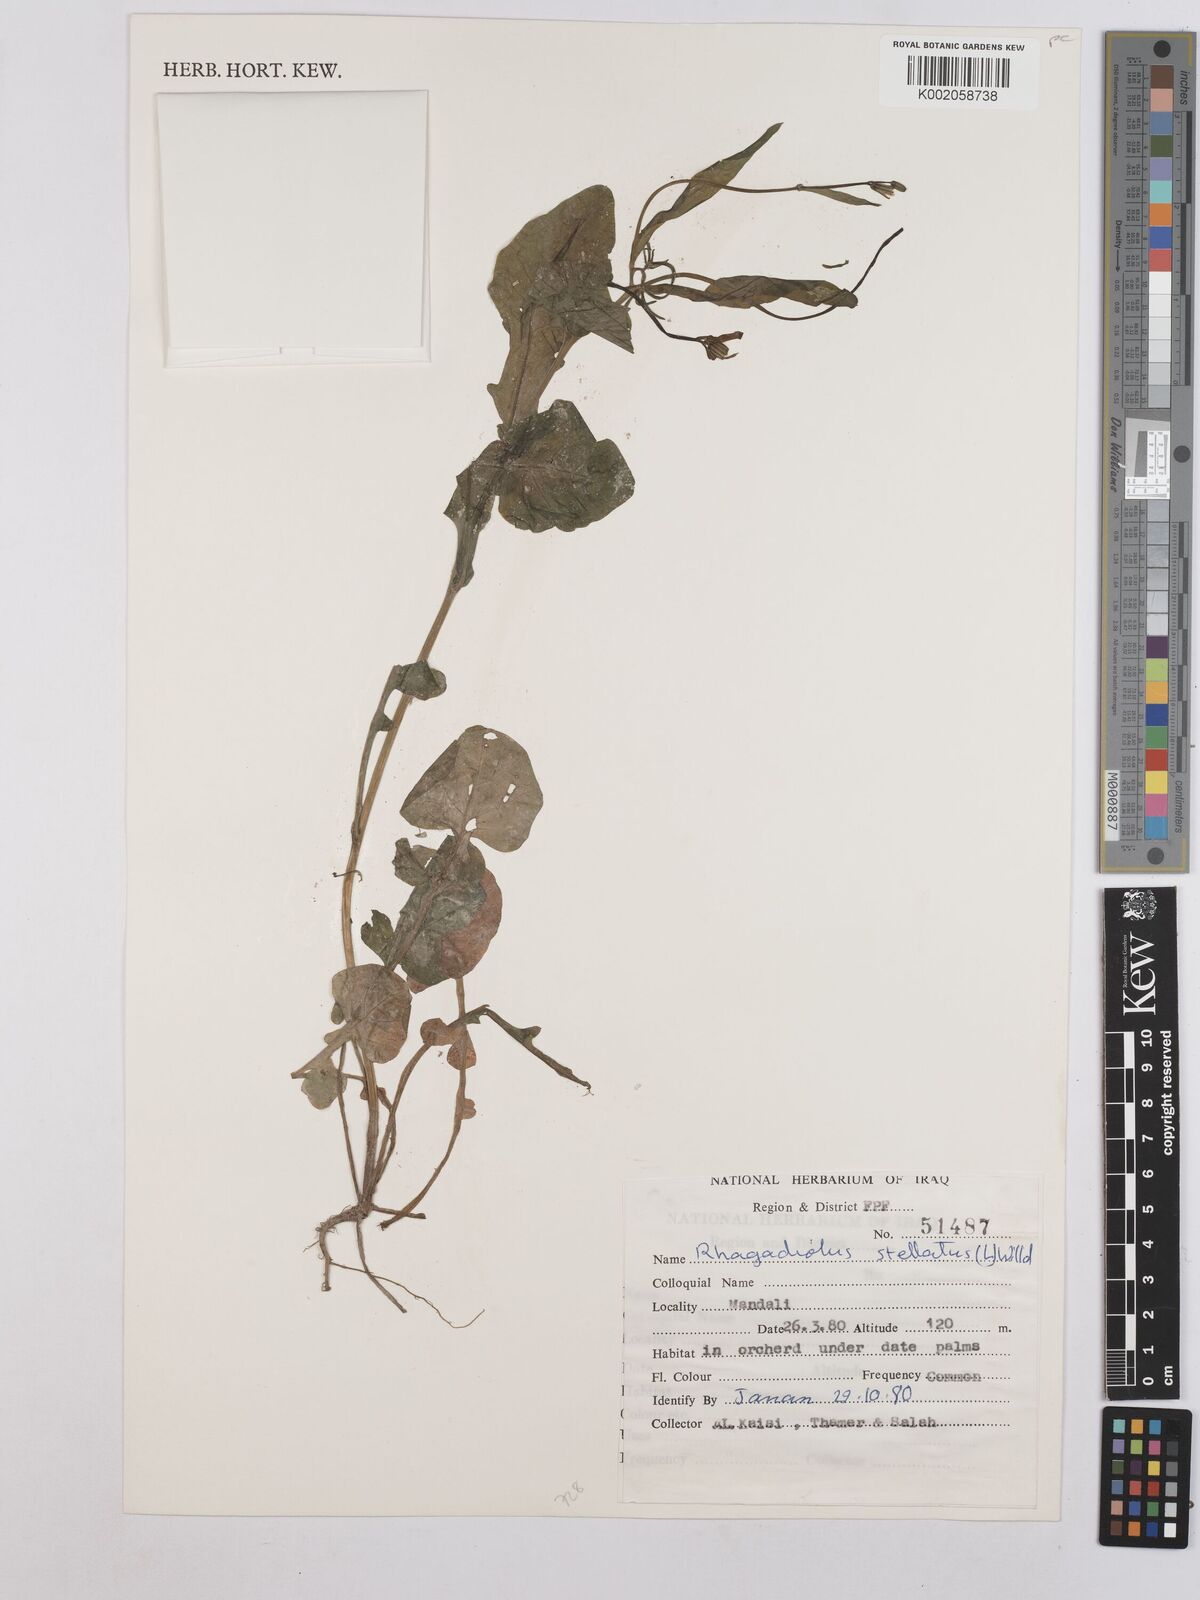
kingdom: Plantae
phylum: Tracheophyta
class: Magnoliopsida
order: Asterales
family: Asteraceae
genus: Rhagadiolus
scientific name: Rhagadiolus stellatus
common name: Star hawkbit
